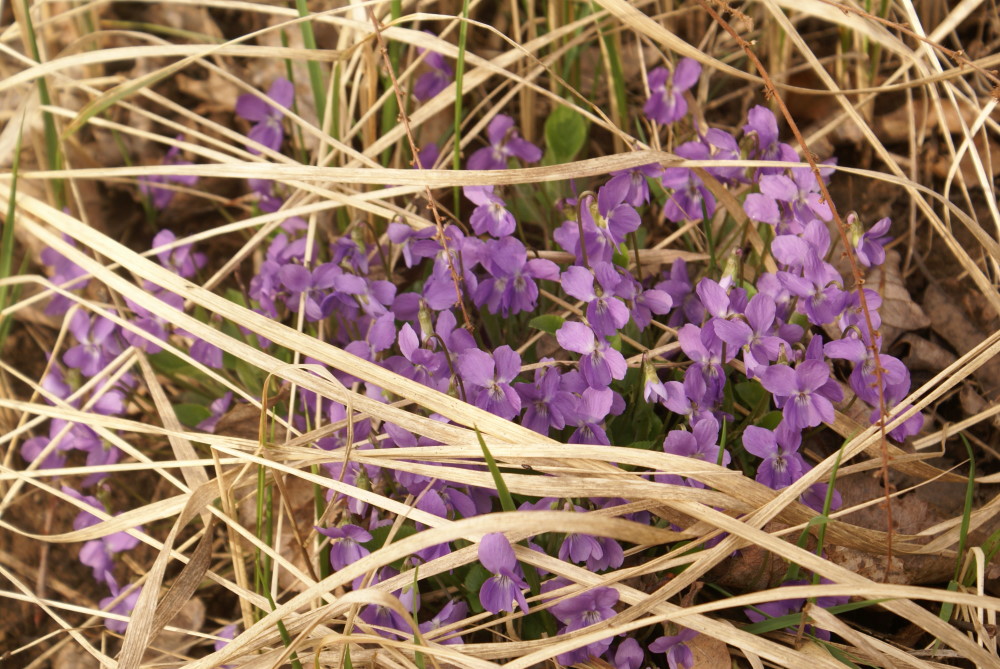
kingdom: Plantae
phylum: Tracheophyta
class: Magnoliopsida
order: Malpighiales
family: Violaceae
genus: Viola
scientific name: Viola rupestris
